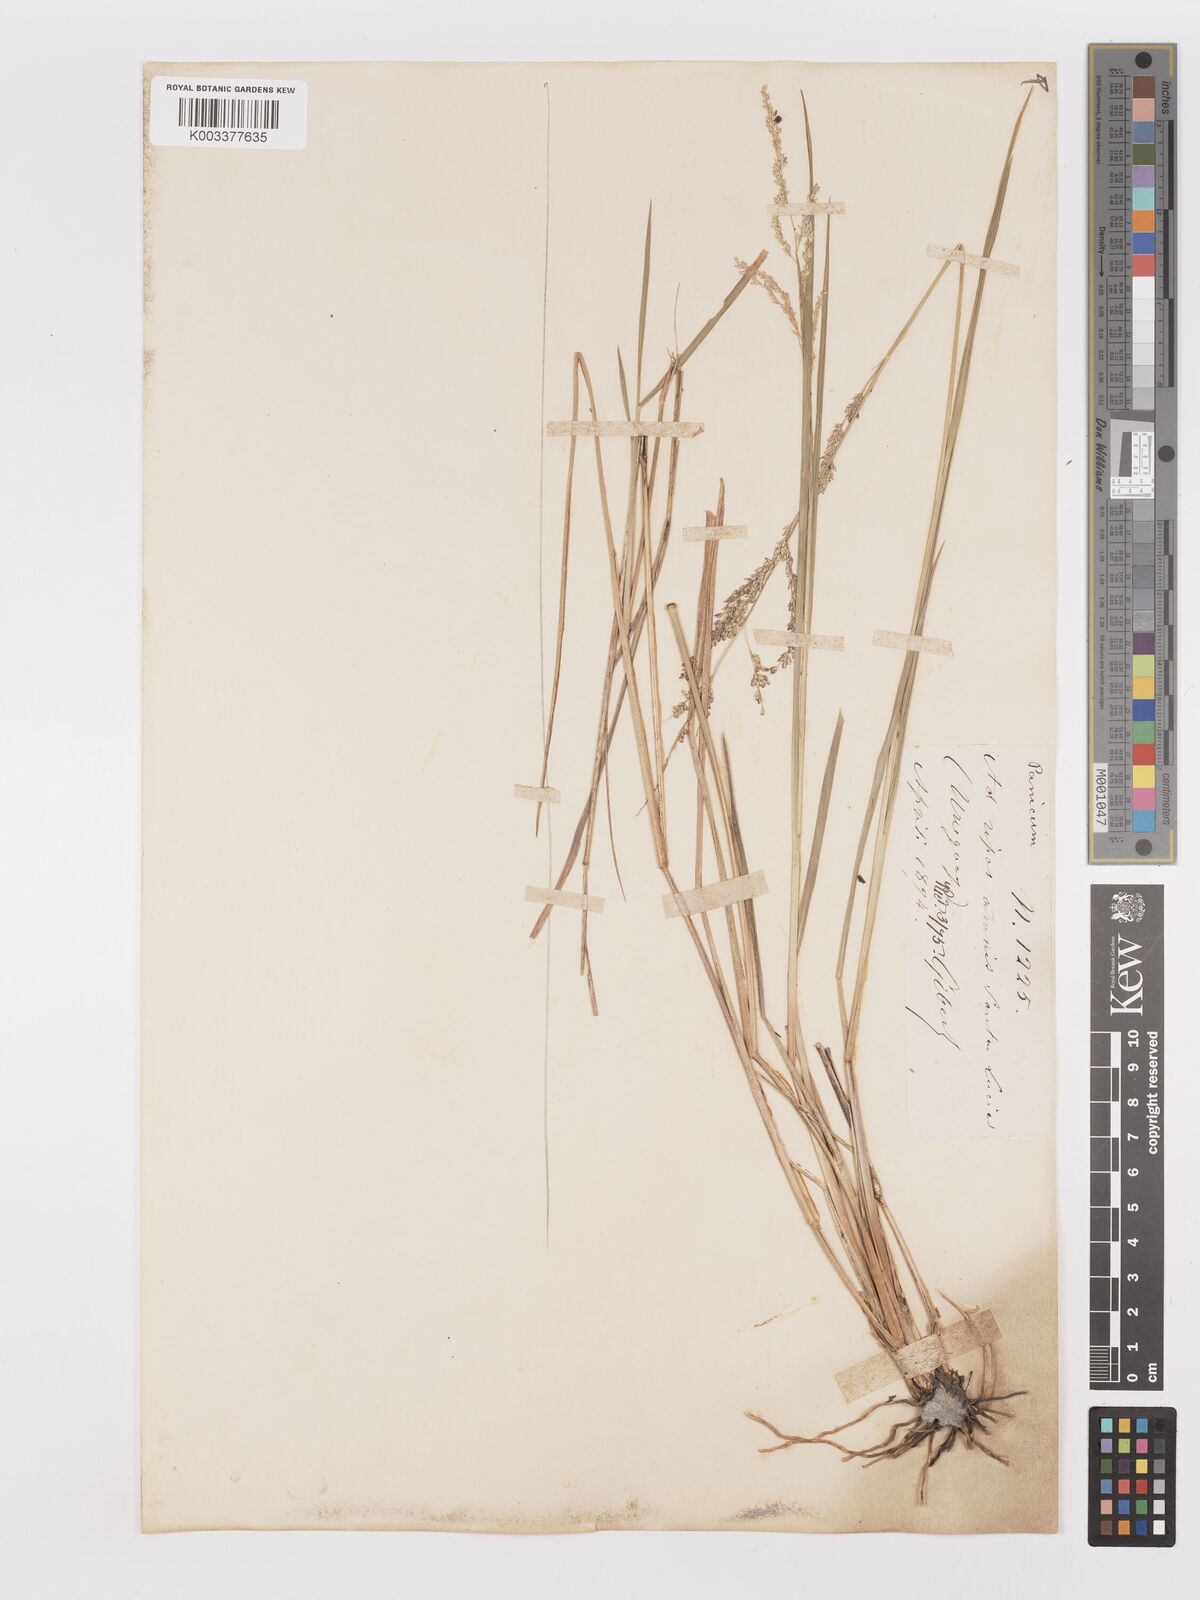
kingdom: Plantae
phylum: Tracheophyta
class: Liliopsida
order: Poales
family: Poaceae
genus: Steinchisma
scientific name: Steinchisma laxum
